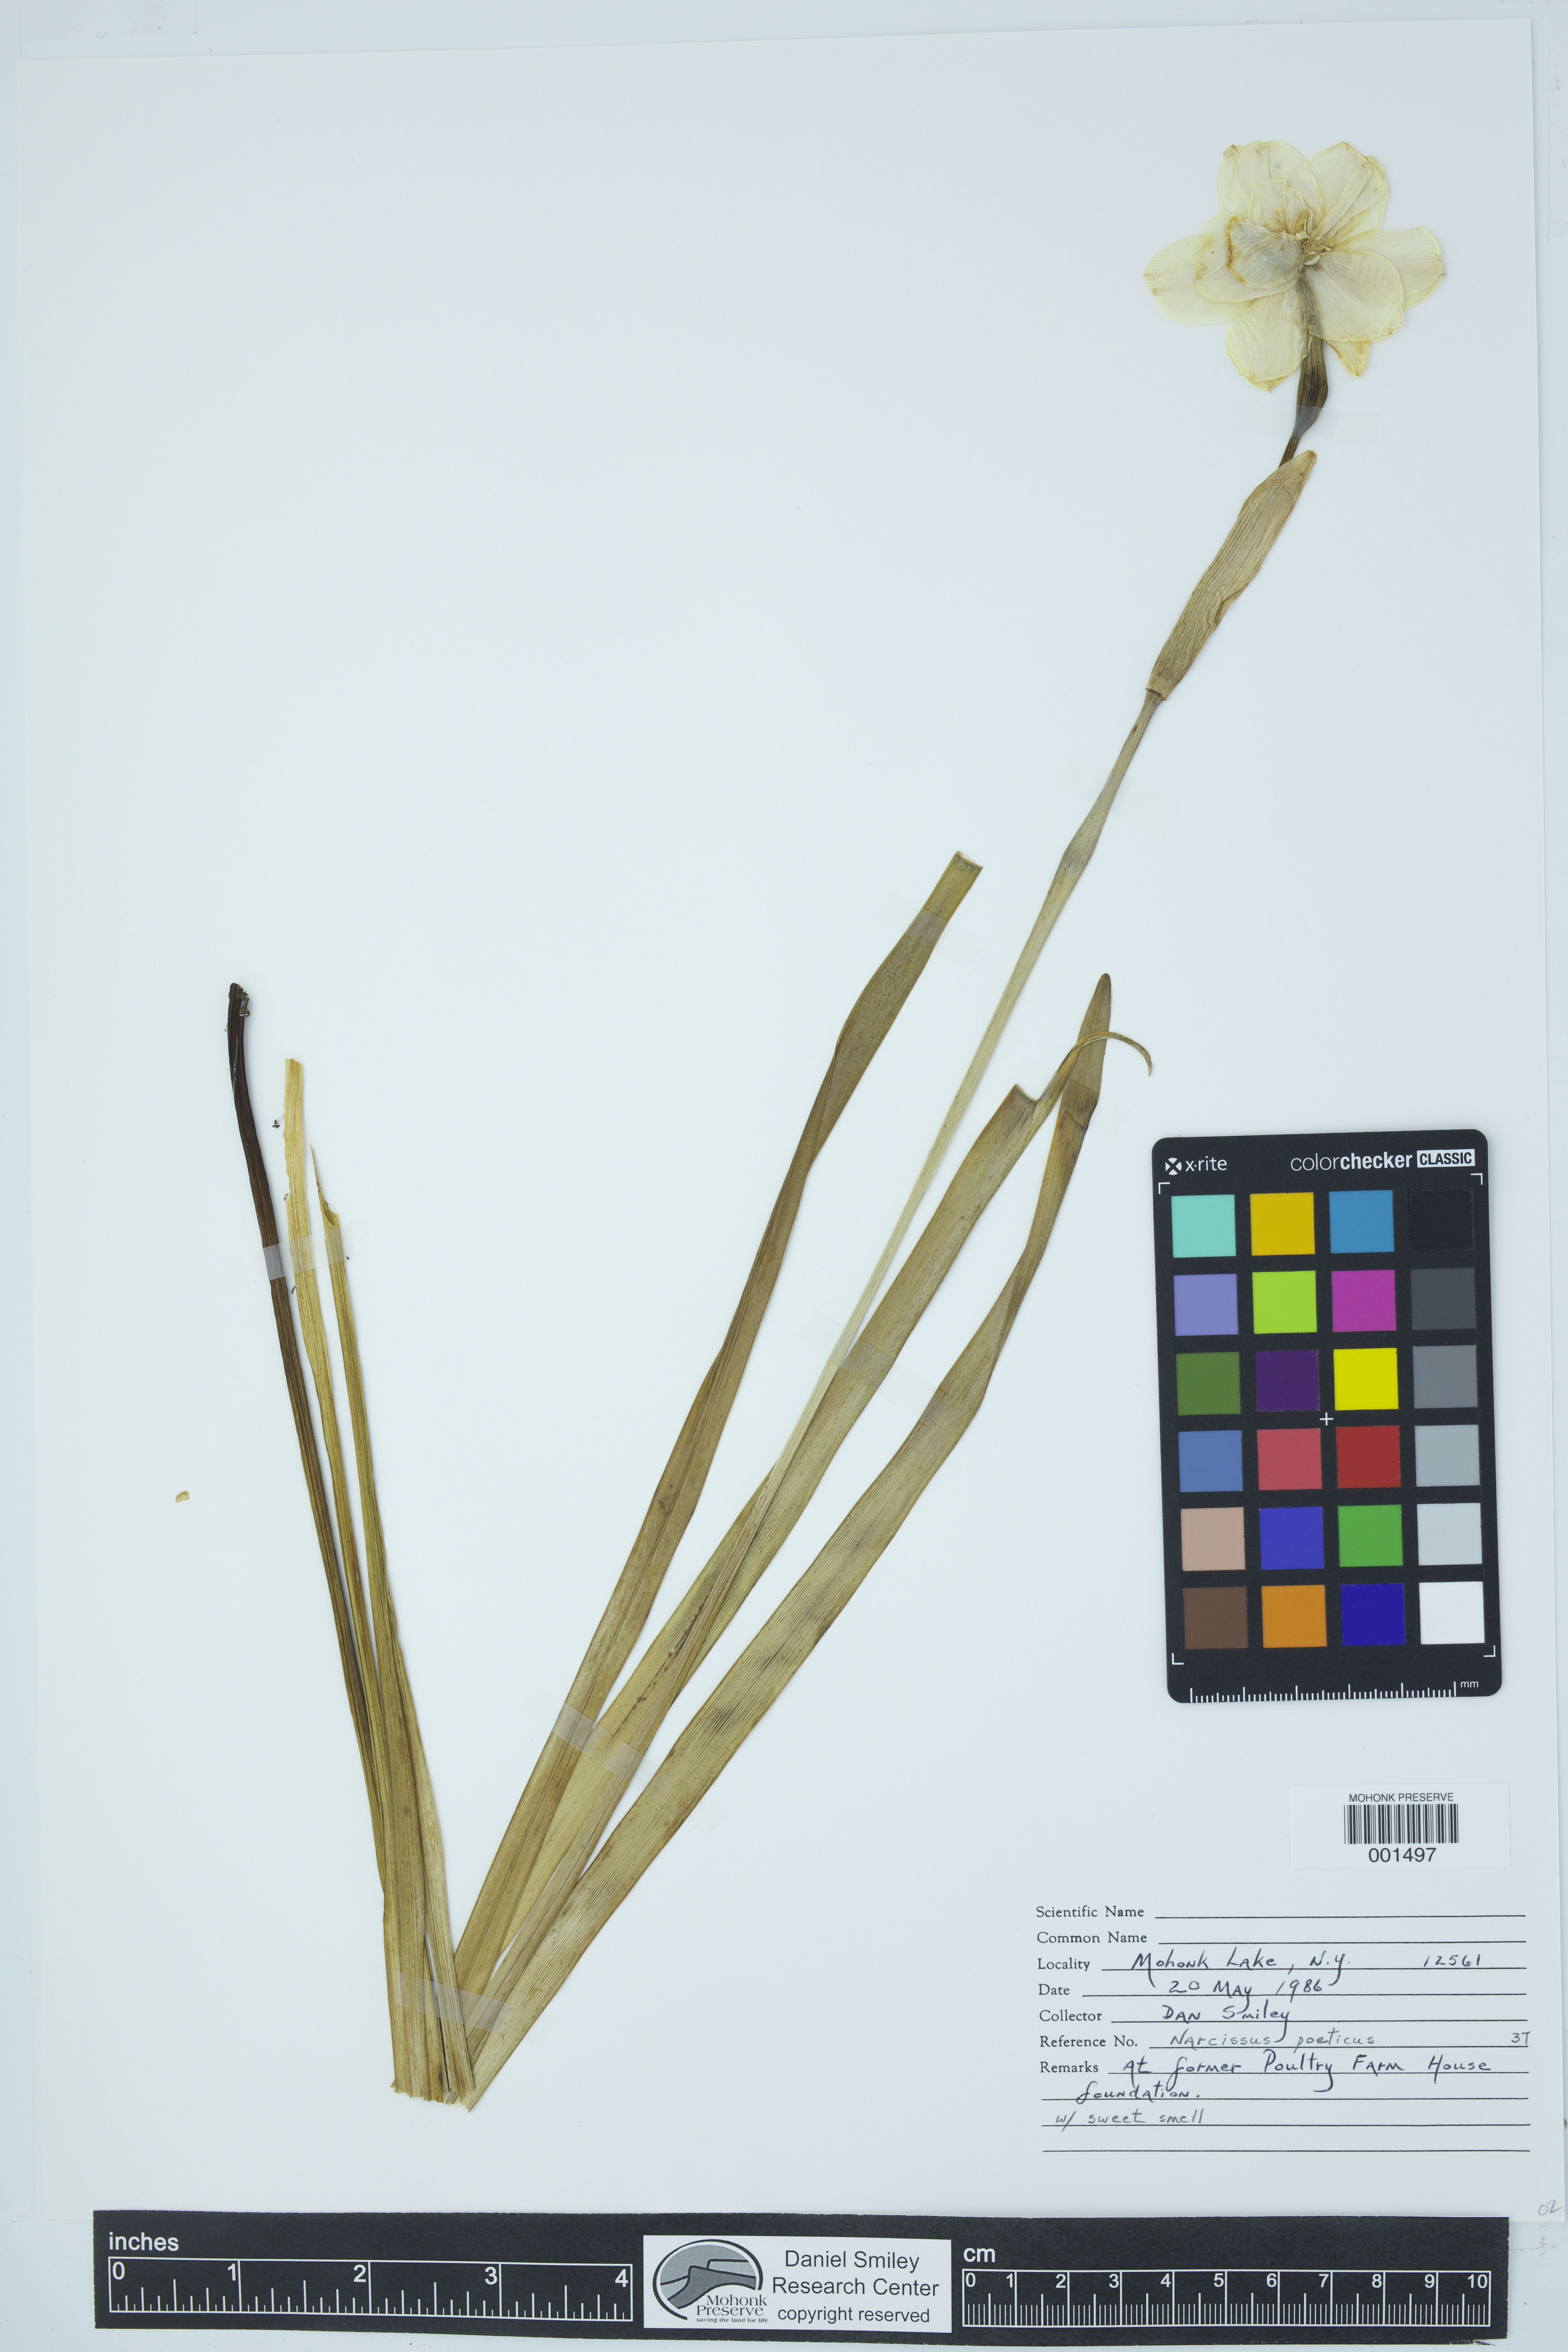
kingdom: Plantae
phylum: Tracheophyta
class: Liliopsida
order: Asparagales
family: Amaryllidaceae
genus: Narcissus
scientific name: Narcissus poeticus
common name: Pheasant's-eye daffodil
